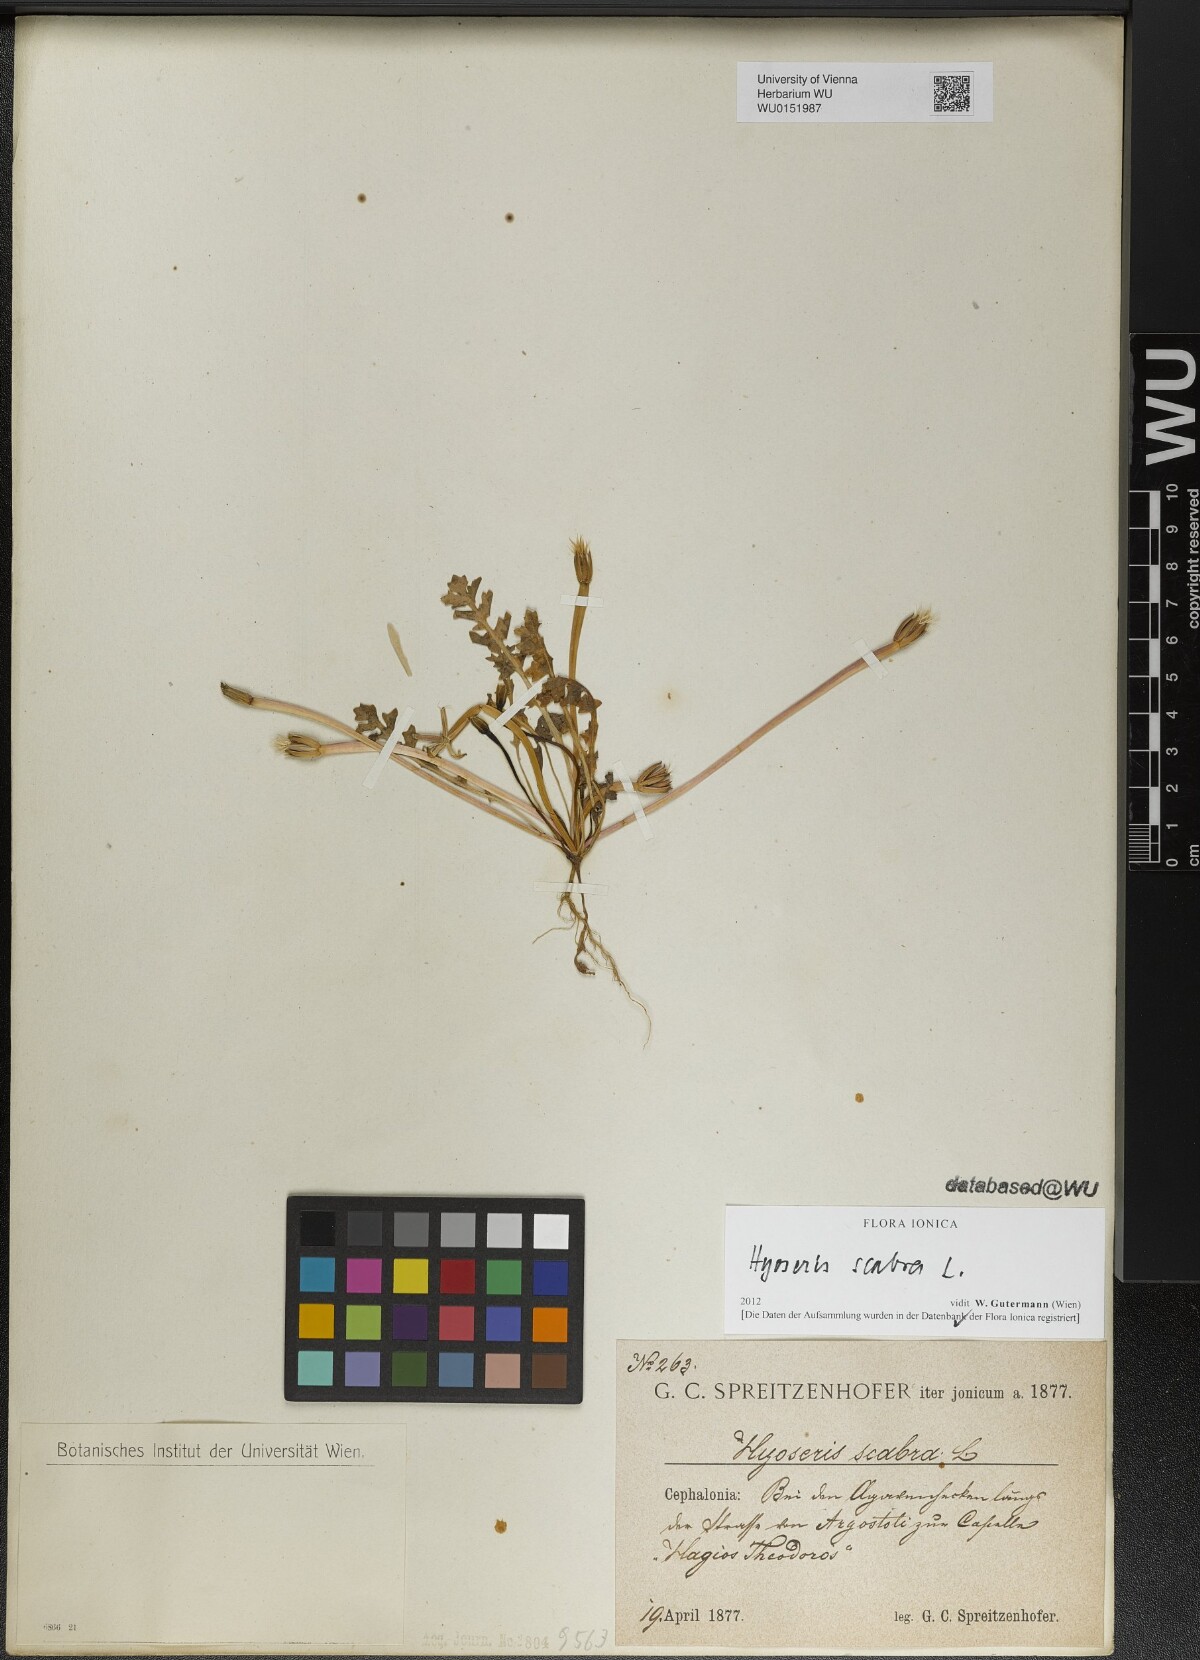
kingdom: Plantae
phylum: Tracheophyta
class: Magnoliopsida
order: Asterales
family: Asteraceae
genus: Hyoseris
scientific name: Hyoseris scabra
